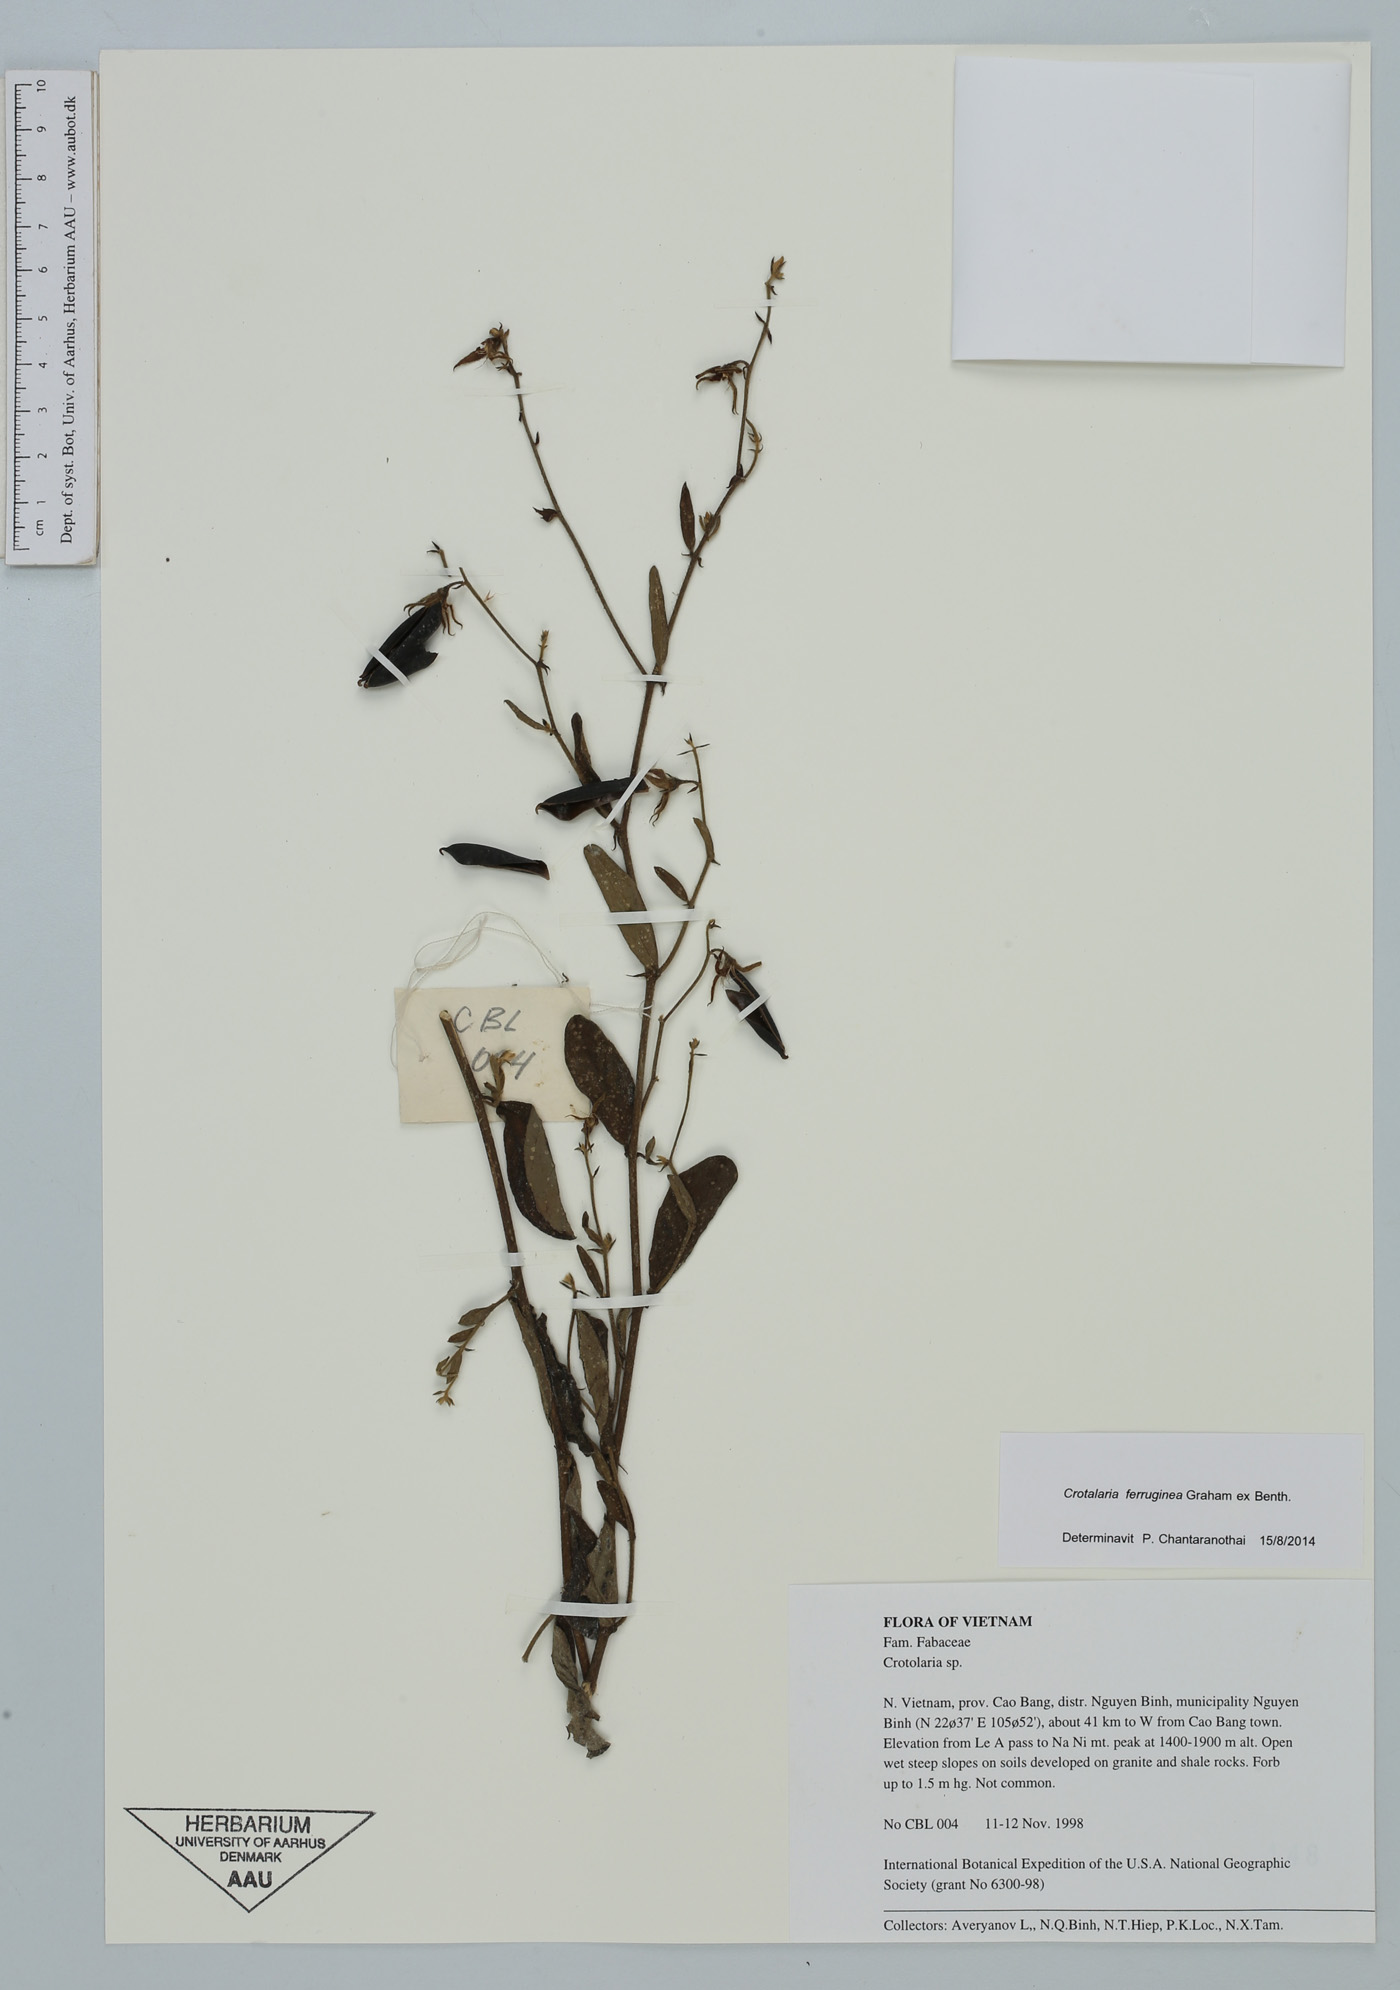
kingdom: Plantae
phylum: Tracheophyta
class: Magnoliopsida
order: Fabales
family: Fabaceae
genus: Crotalaria
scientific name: Crotalaria
